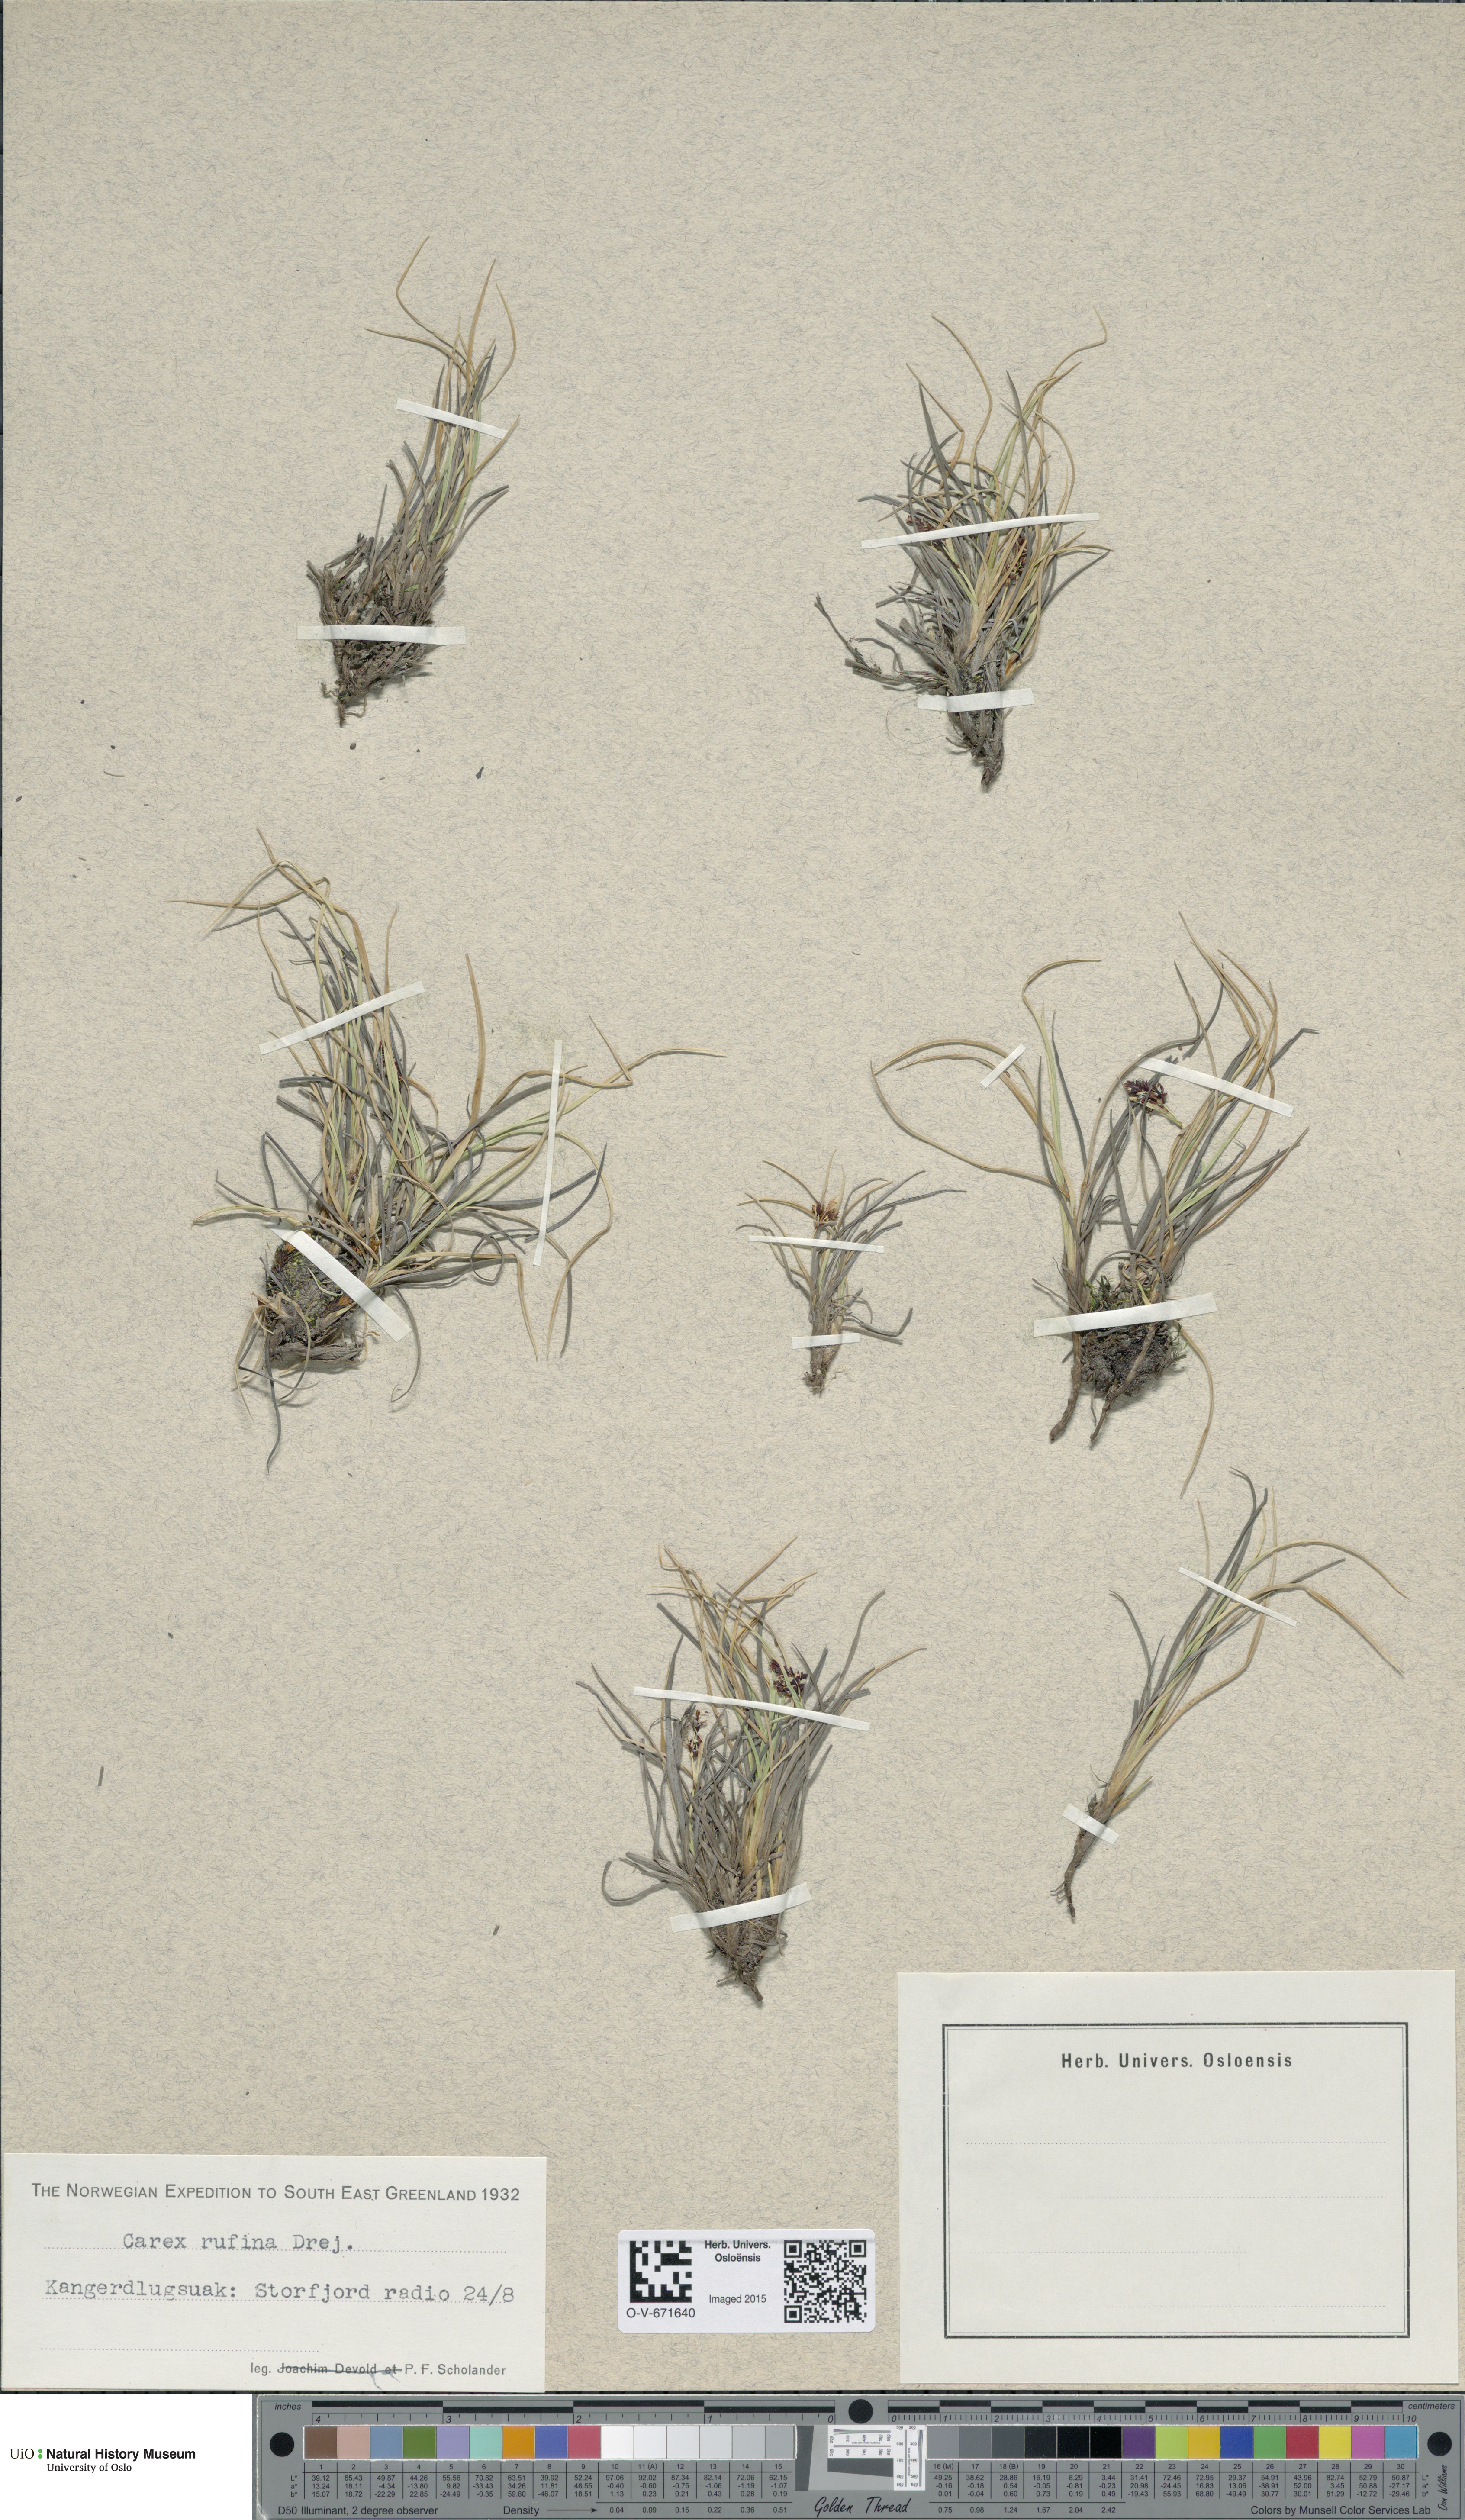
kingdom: Plantae
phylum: Tracheophyta
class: Liliopsida
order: Poales
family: Cyperaceae
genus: Carex
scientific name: Carex rufina
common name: Reddish sedge
